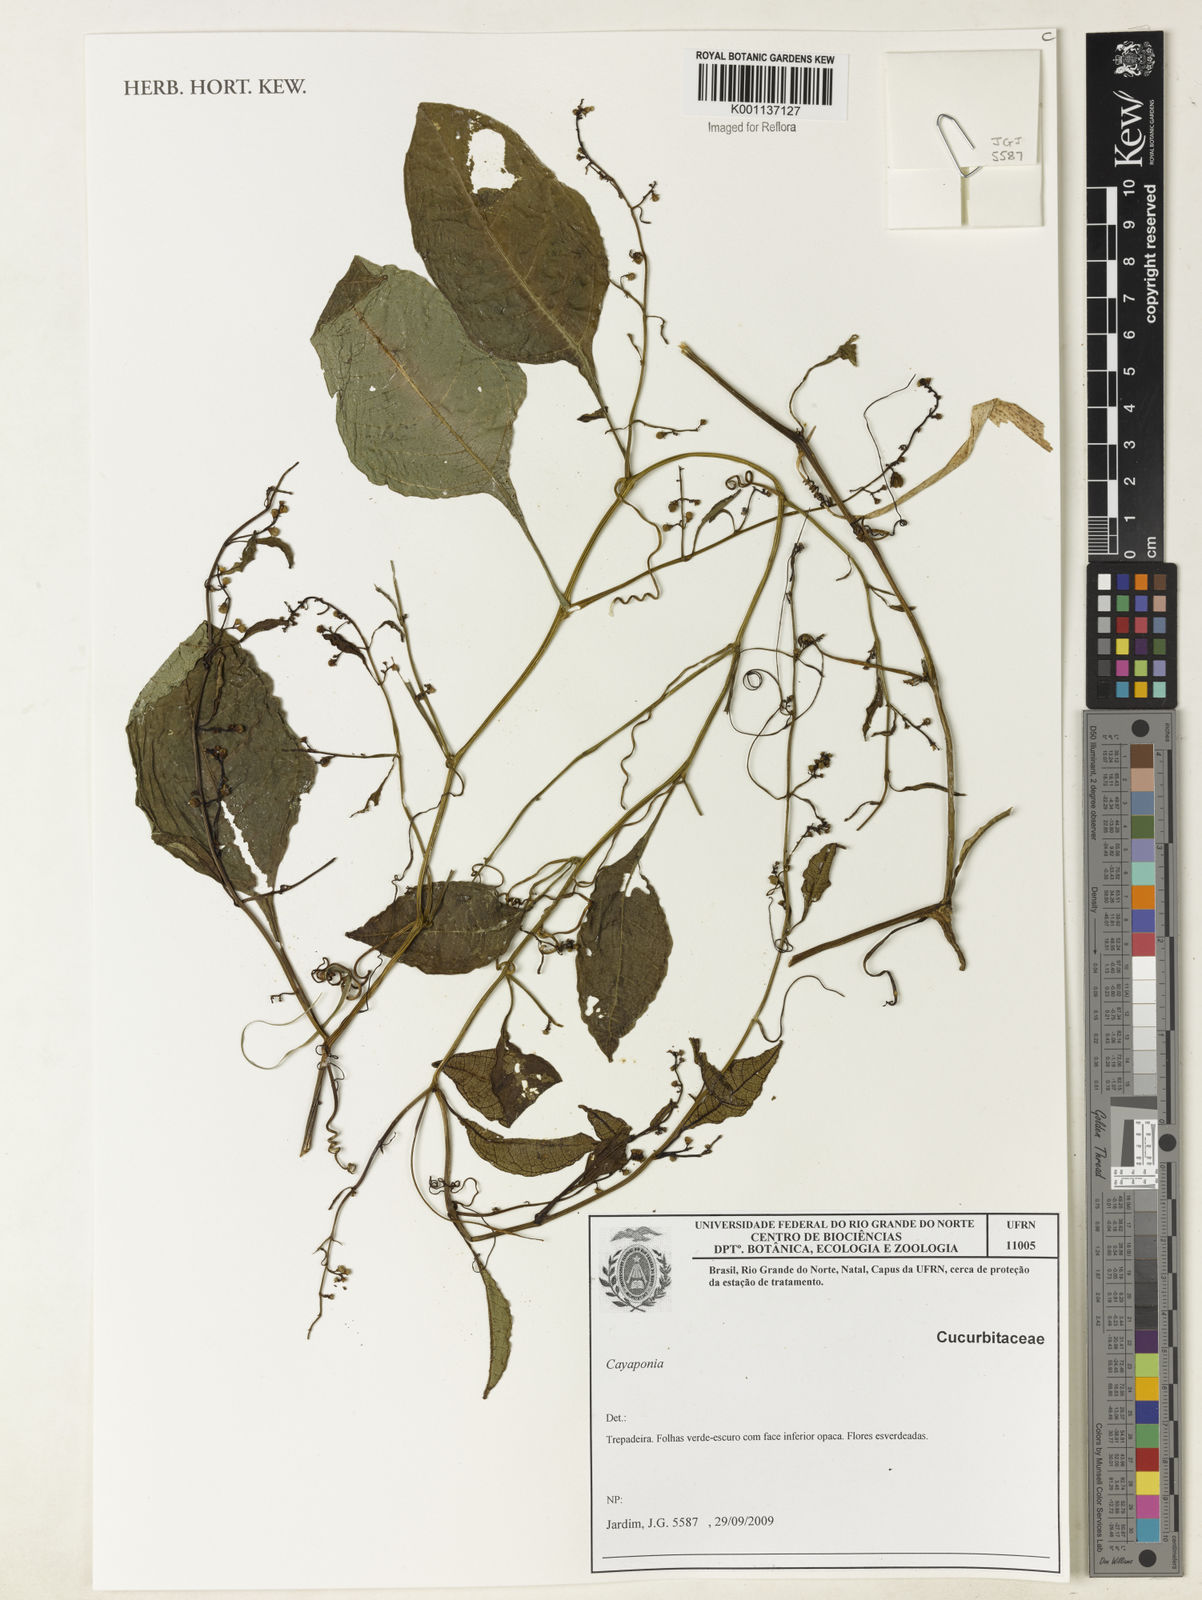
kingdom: Plantae
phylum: Tracheophyta
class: Magnoliopsida
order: Cucurbitales
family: Cucurbitaceae
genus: Cayaponia
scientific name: Cayaponia
